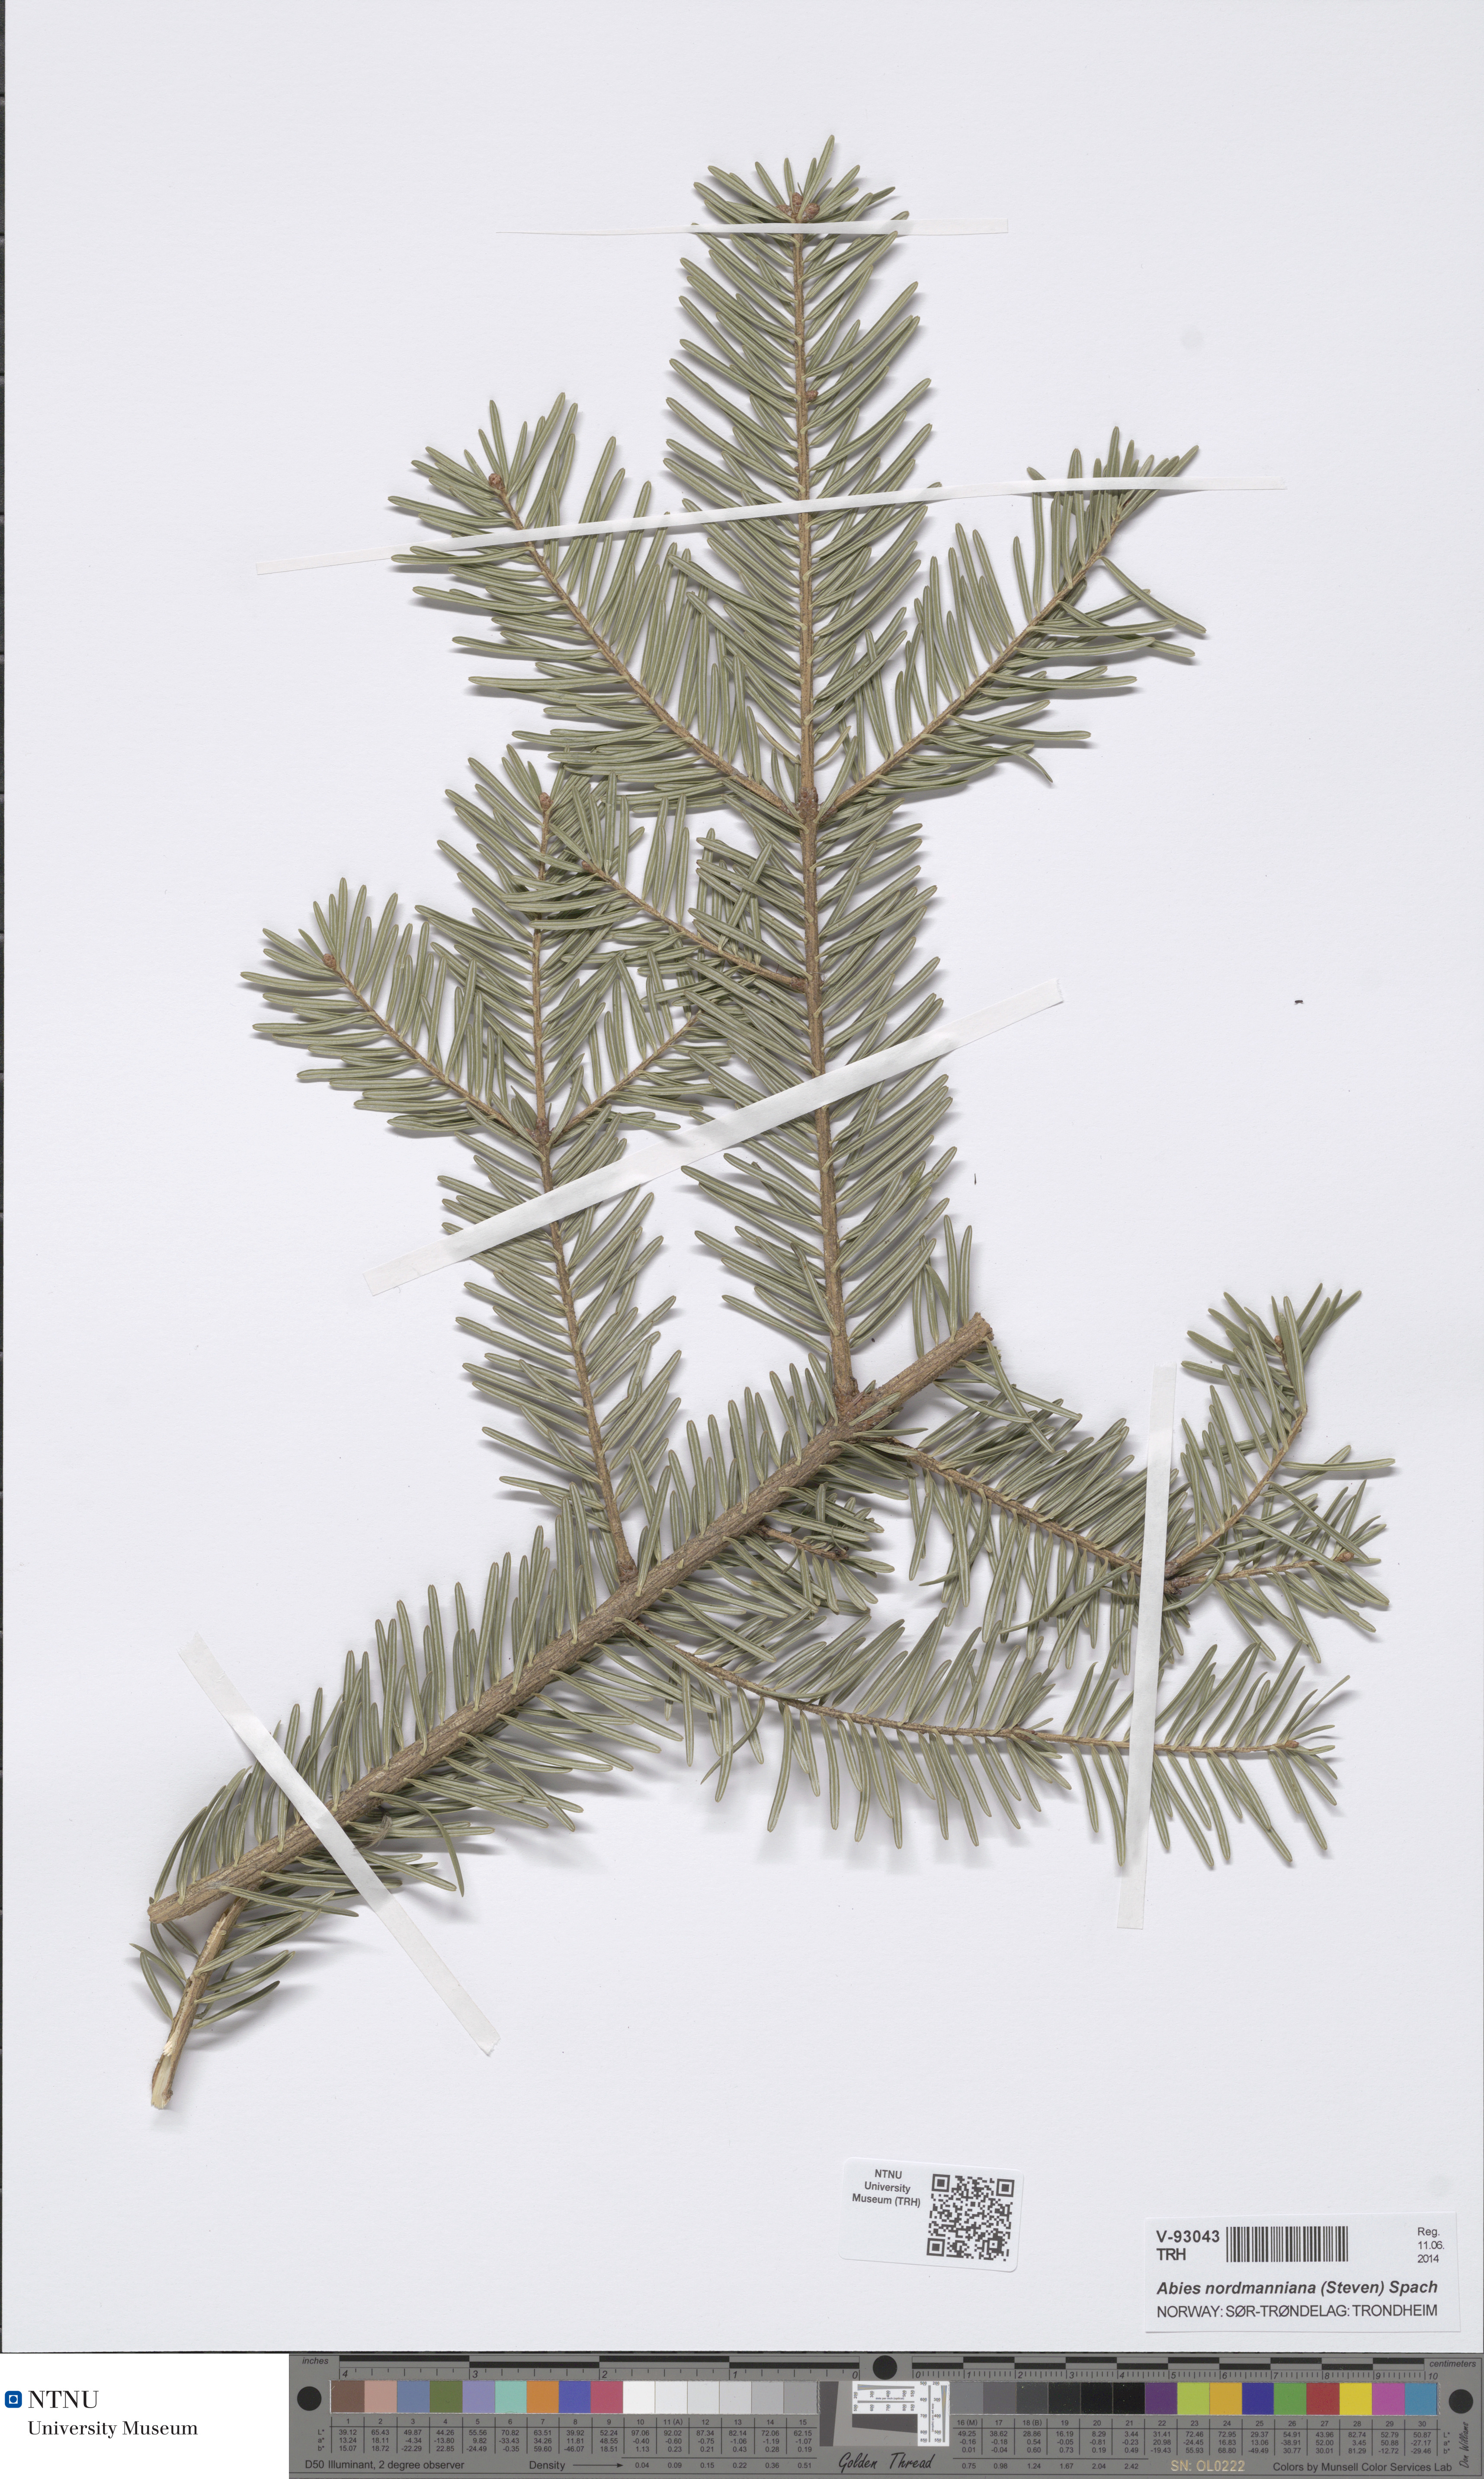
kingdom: Plantae
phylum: Tracheophyta
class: Pinopsida
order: Pinales
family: Pinaceae
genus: Abies
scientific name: Abies nordmanniana
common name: Caucasian fir
